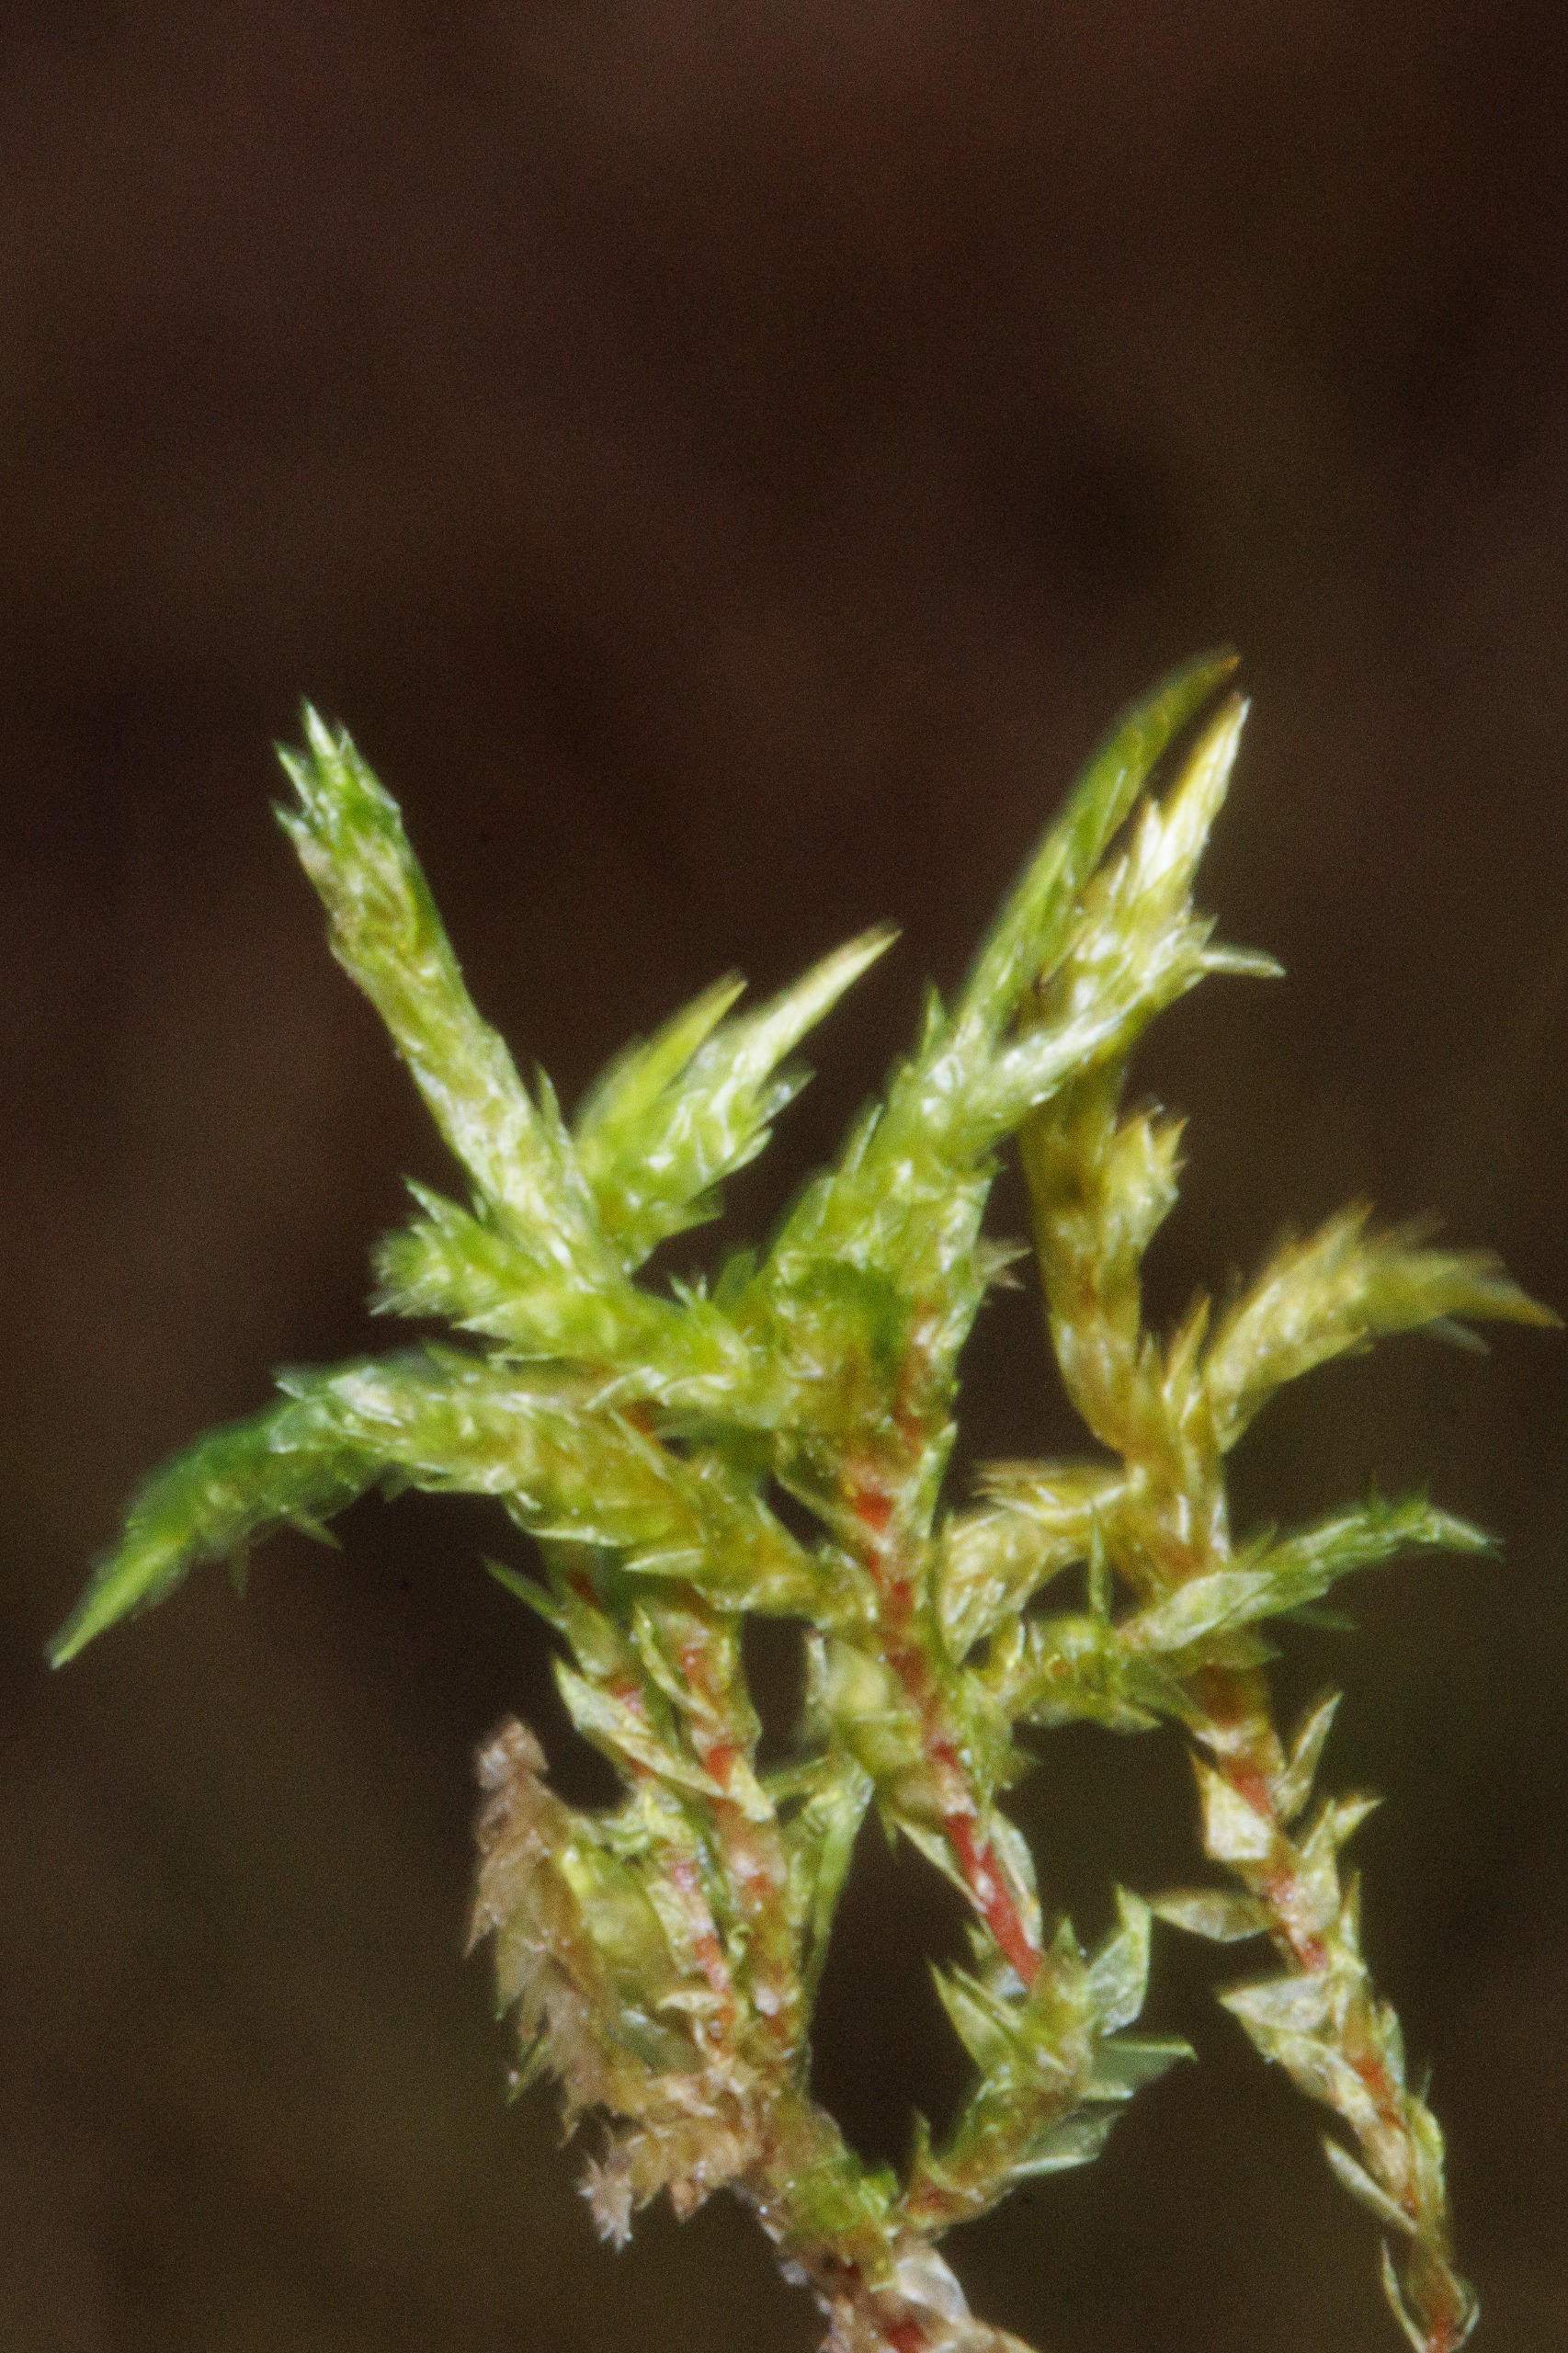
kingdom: Plantae
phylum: Bryophyta
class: Bryopsida
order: Hypnales
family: Pylaisiaceae
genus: Calliergonella
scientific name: Calliergonella cuspidata
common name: Spids spydmos
